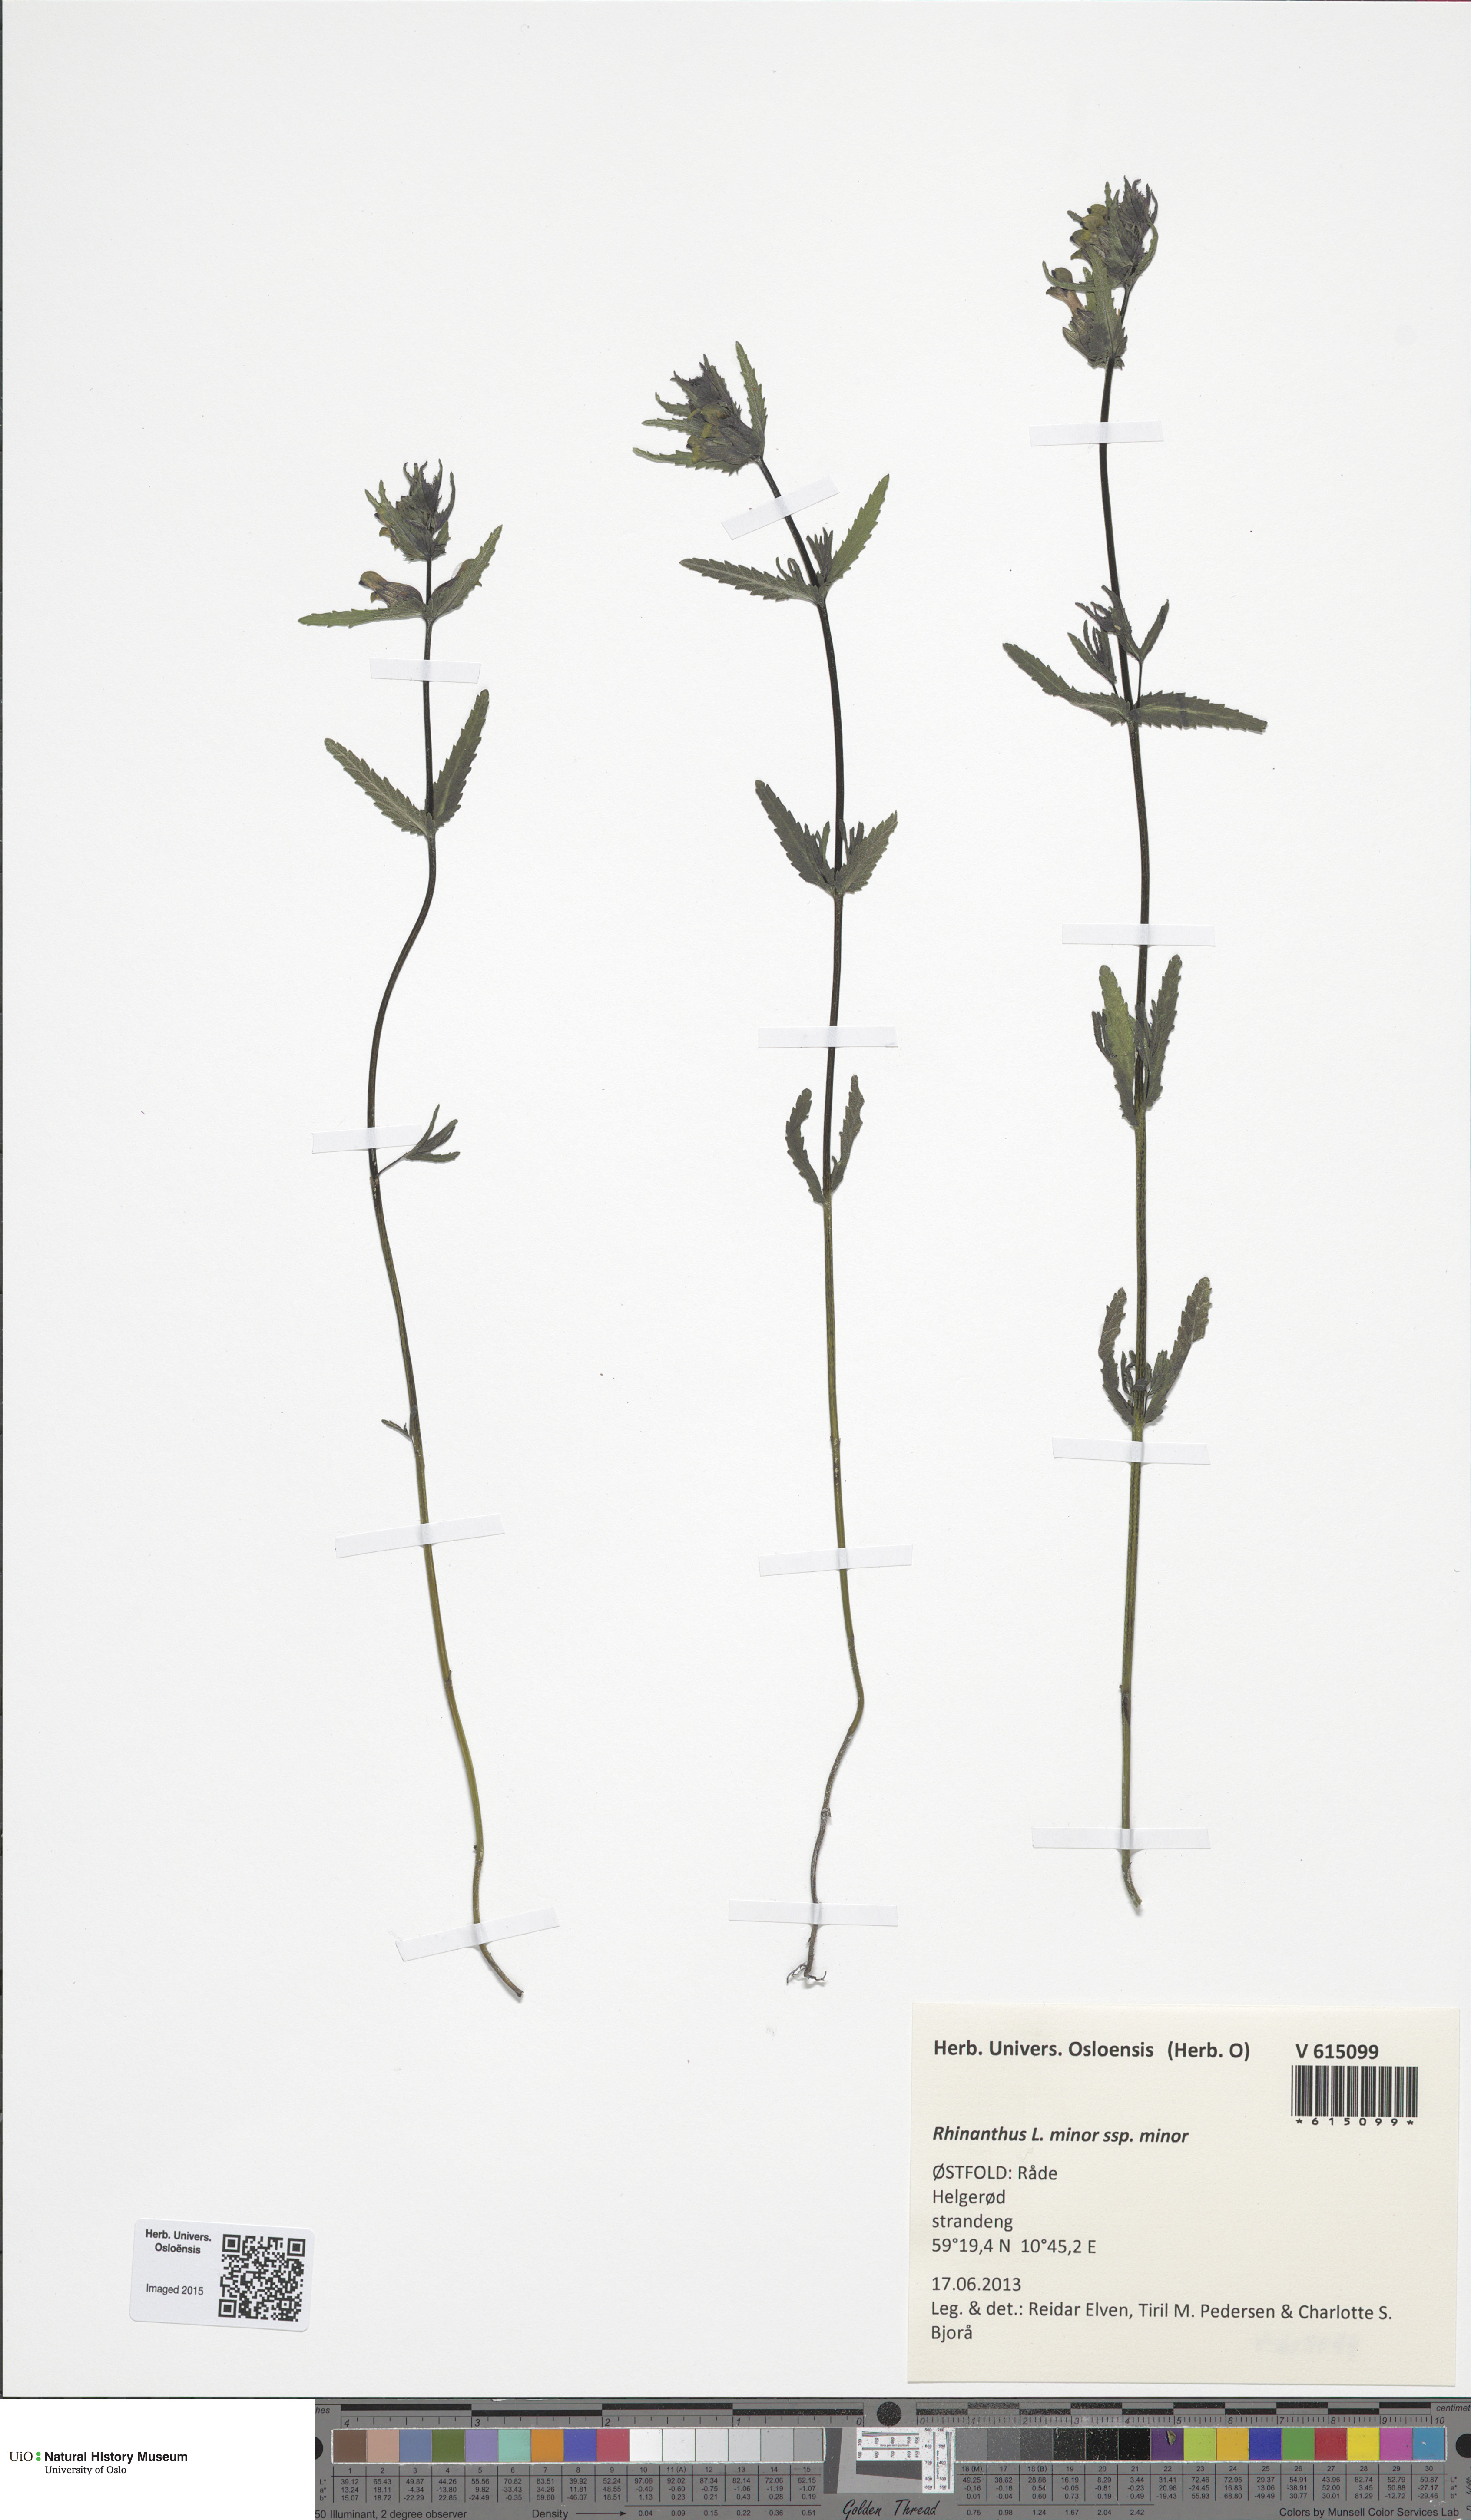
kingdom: Plantae
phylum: Tracheophyta
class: Magnoliopsida
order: Lamiales
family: Orobanchaceae
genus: Rhinanthus
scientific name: Rhinanthus minor
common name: Yellow-rattle
